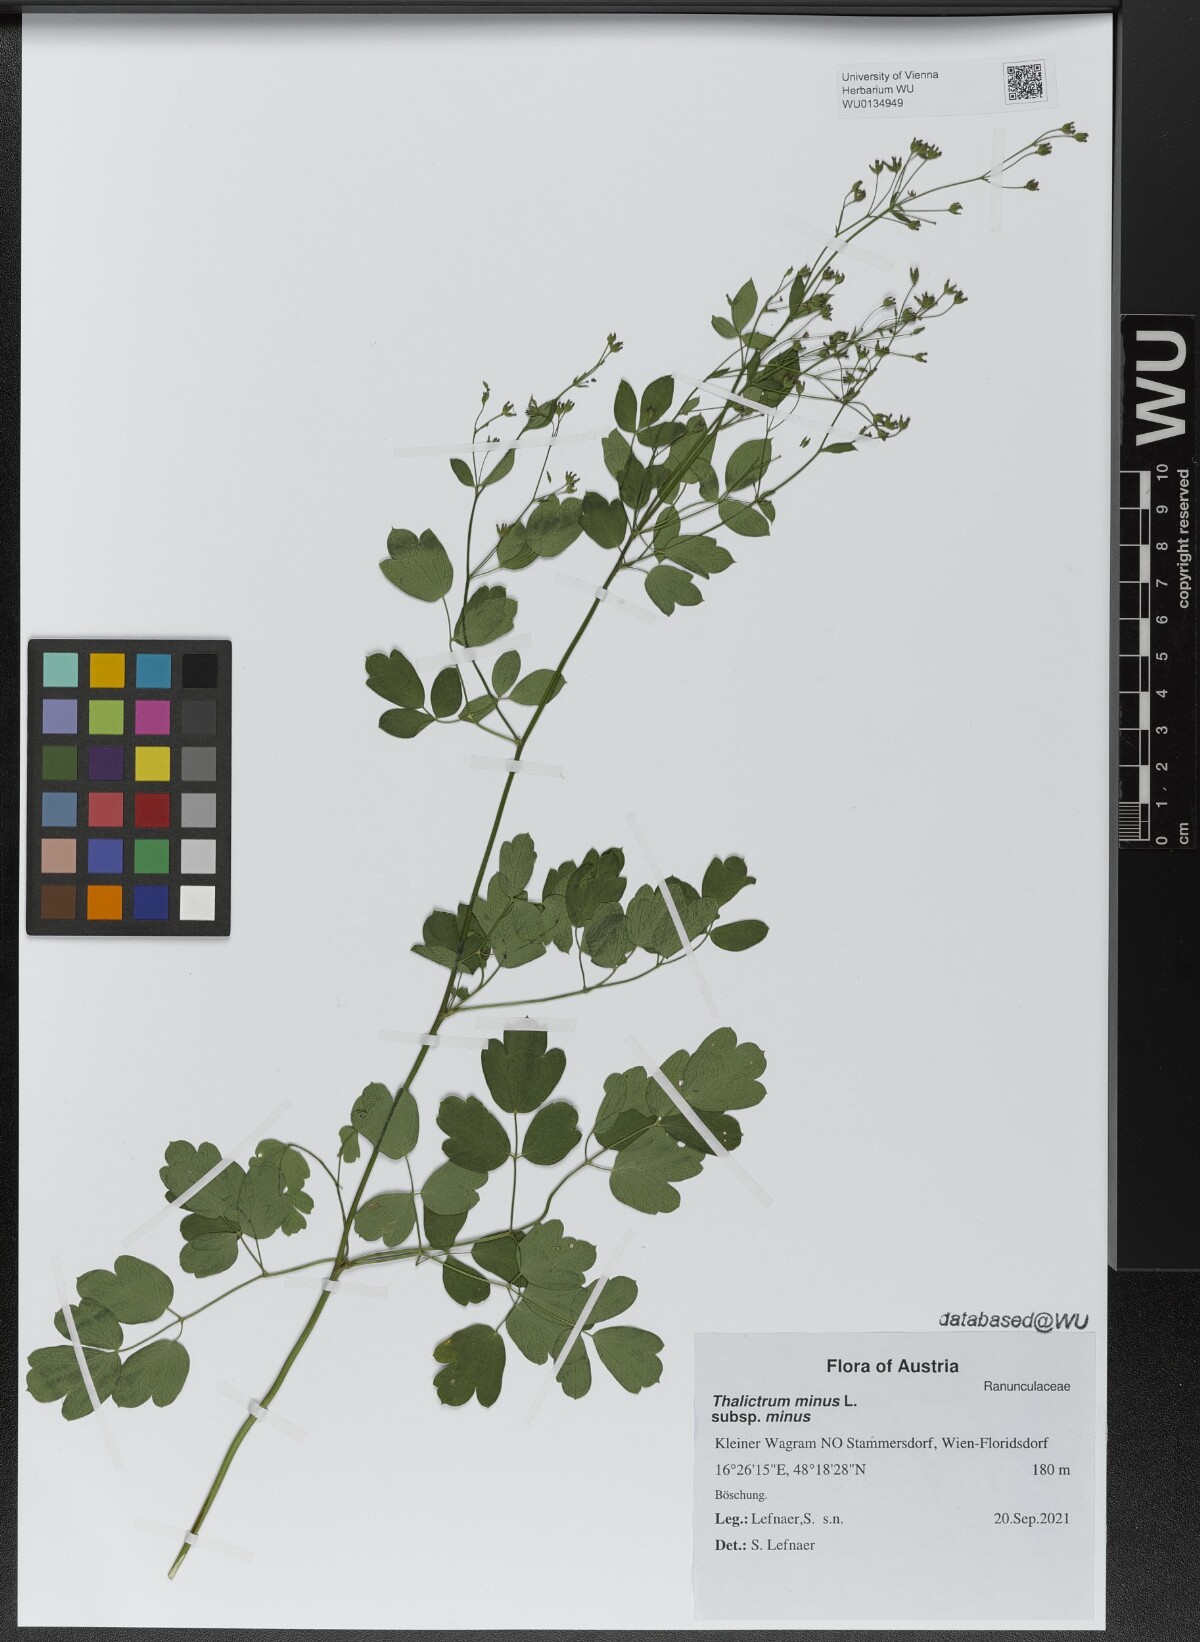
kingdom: Plantae
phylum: Tracheophyta
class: Magnoliopsida
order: Ranunculales
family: Ranunculaceae
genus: Thalictrum
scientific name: Thalictrum minus
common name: Lesser meadow-rue
